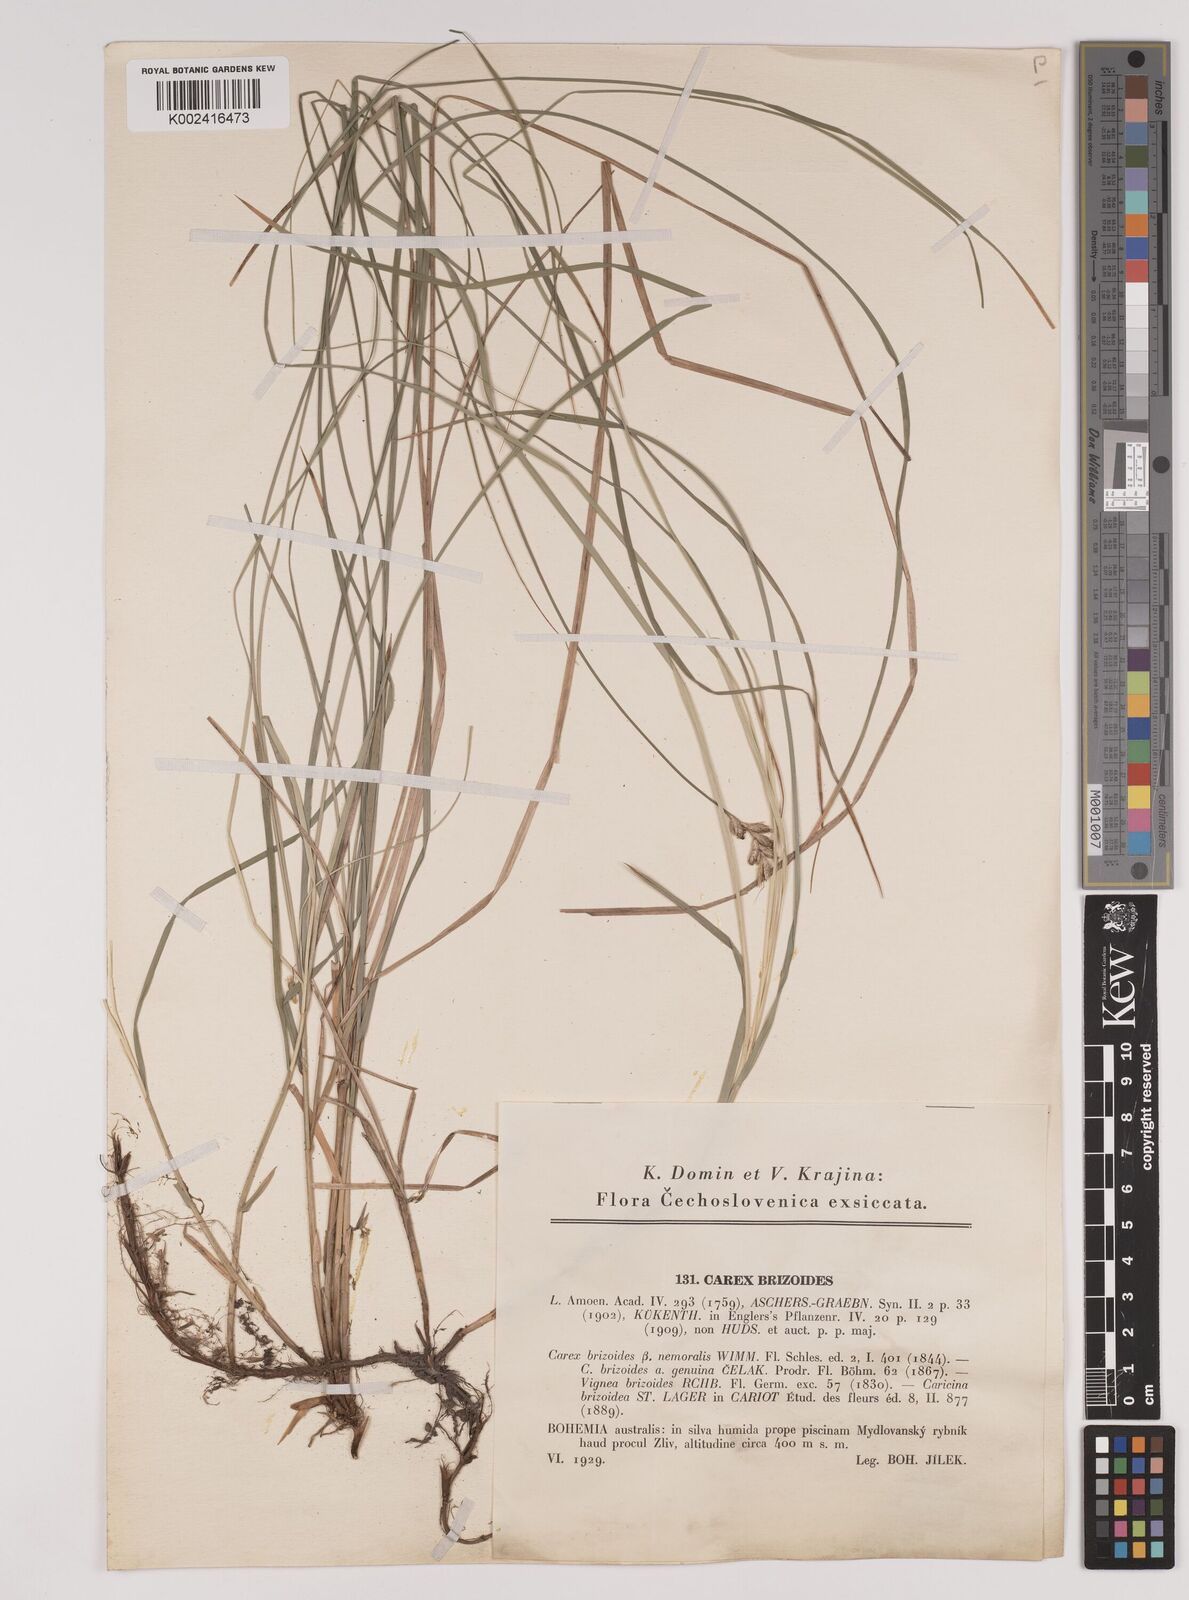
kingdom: Plantae
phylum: Tracheophyta
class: Liliopsida
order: Poales
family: Cyperaceae
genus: Carex
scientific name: Carex brizoides
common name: Quaking-grass sedge
